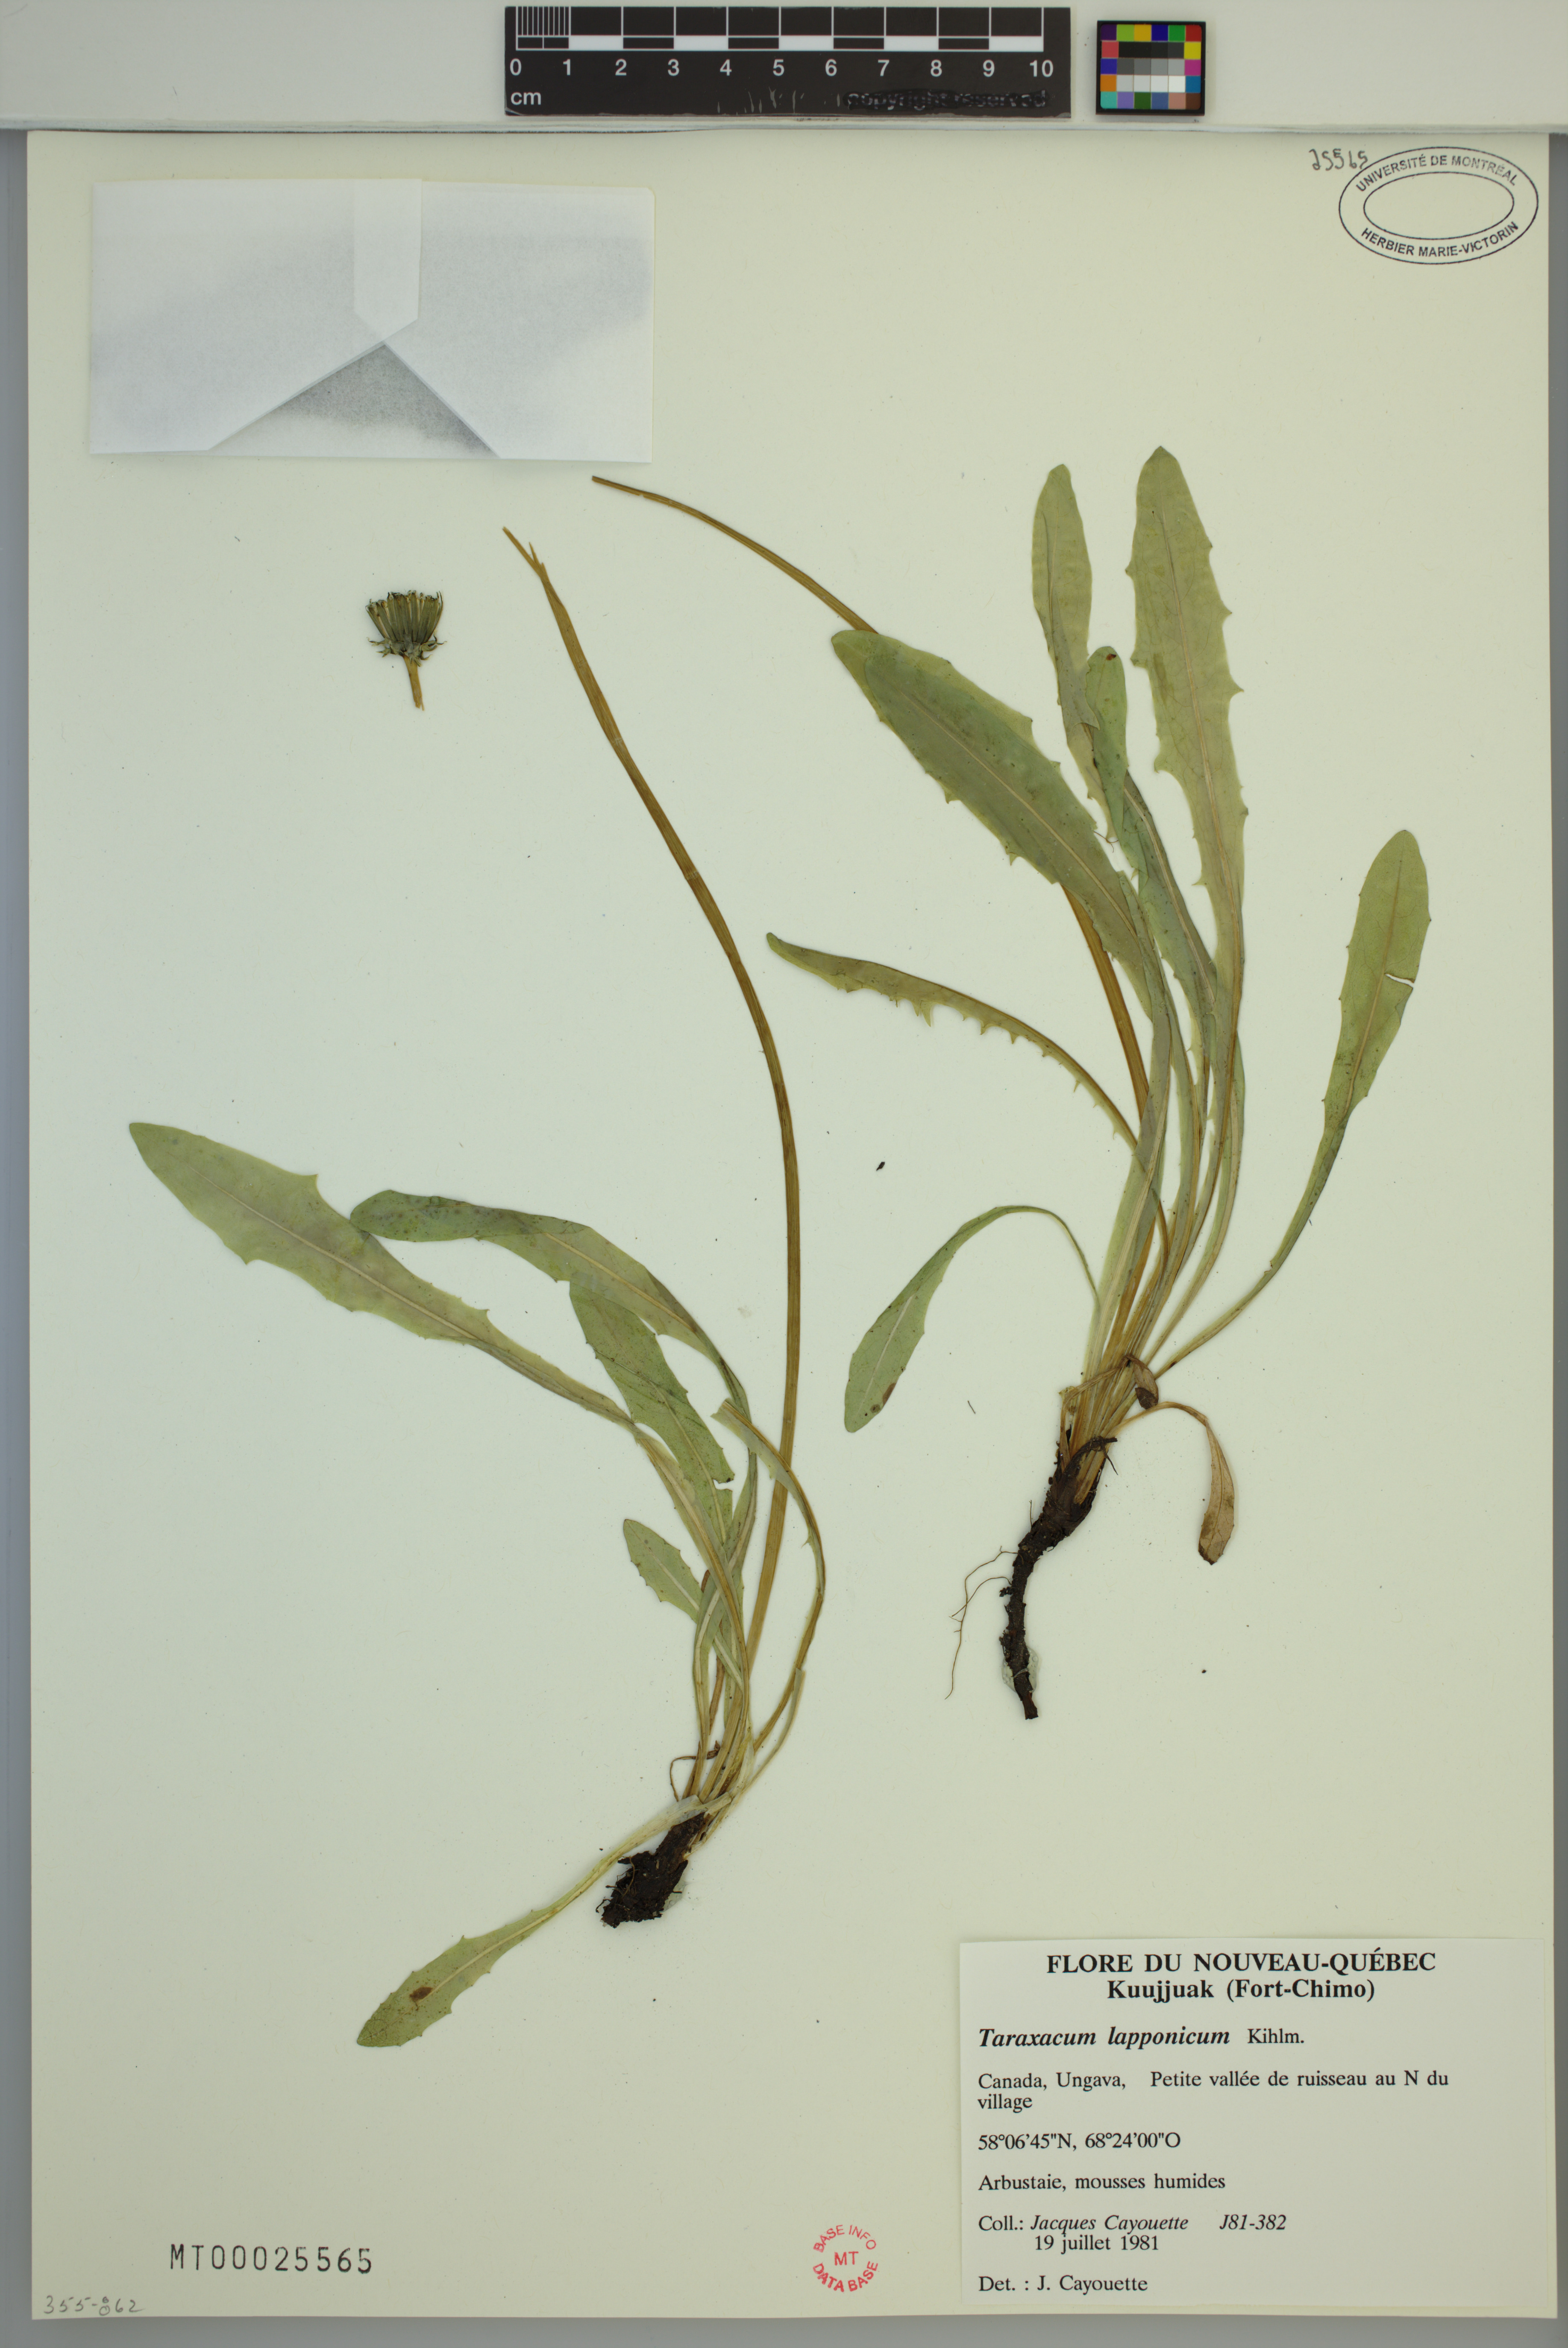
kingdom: Plantae
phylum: Tracheophyta
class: Magnoliopsida
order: Asterales
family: Asteraceae
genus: Taraxacum
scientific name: Taraxacum croceum
